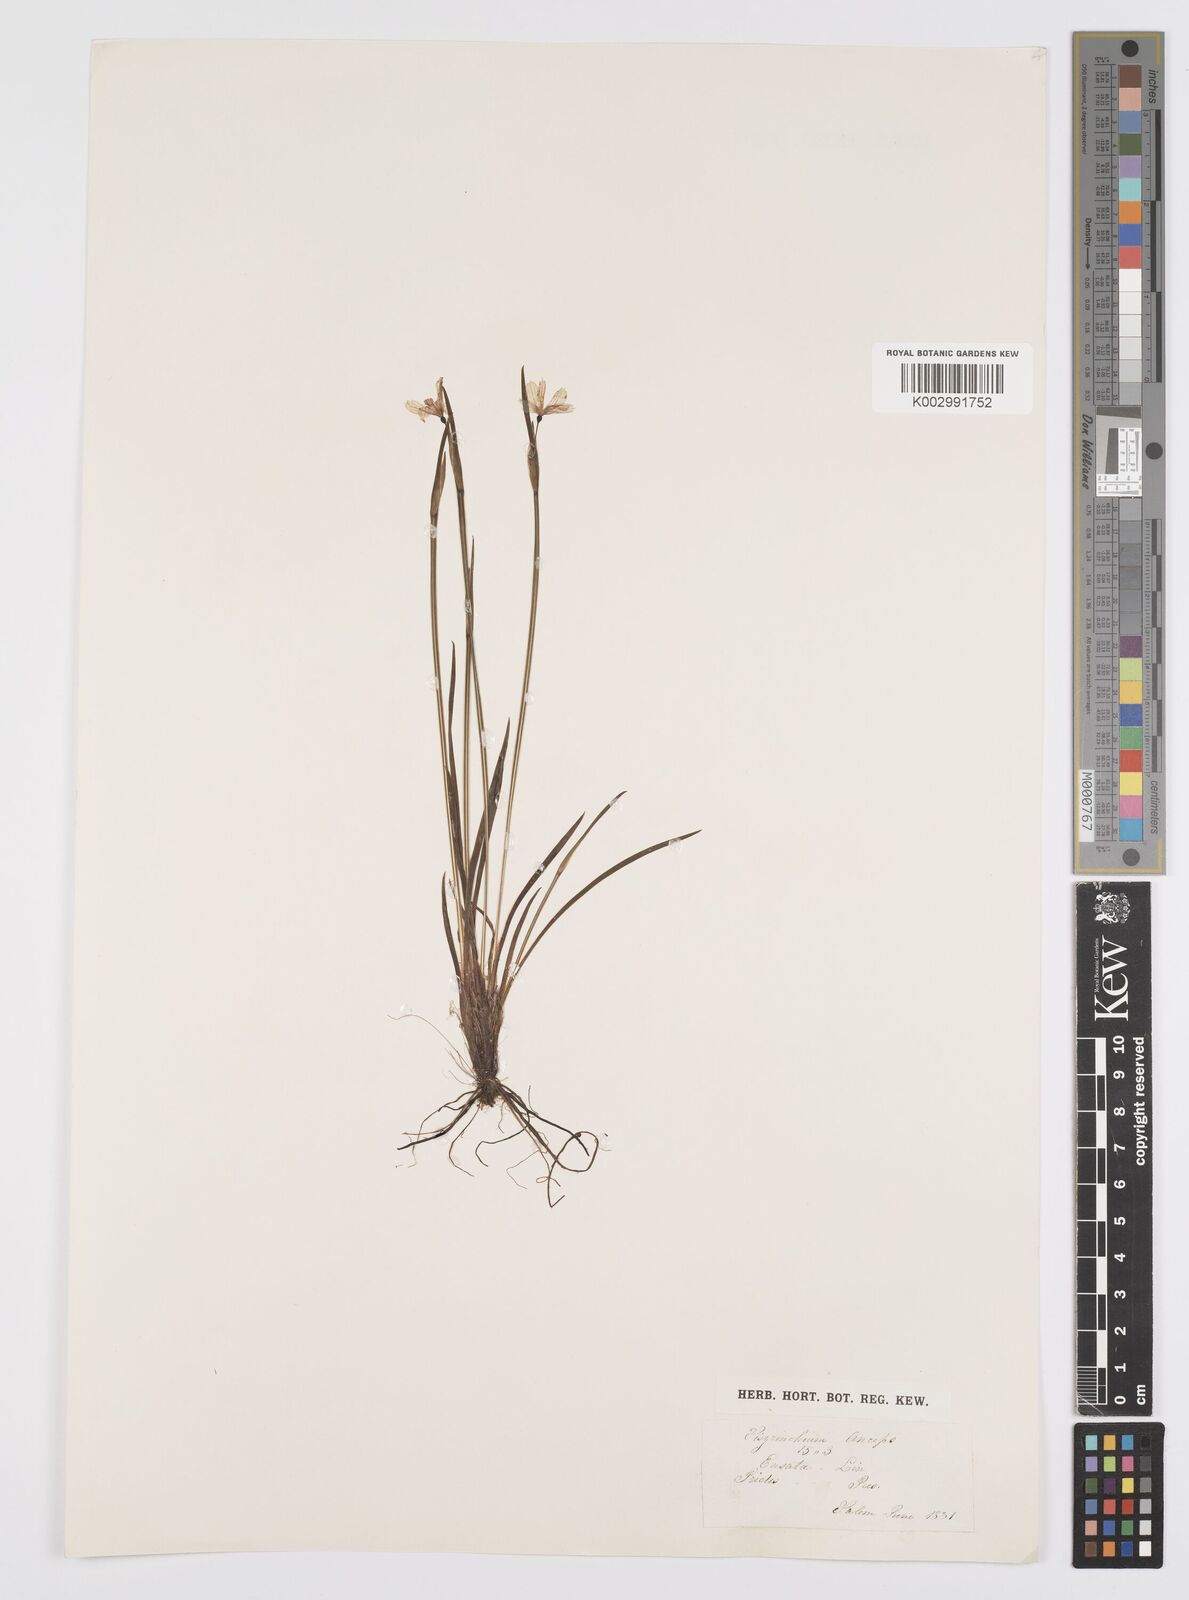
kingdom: Plantae
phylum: Tracheophyta
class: Liliopsida
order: Asparagales
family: Iridaceae
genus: Sisyrinchium
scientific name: Sisyrinchium bermudiana
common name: Blue-eyed-grass
